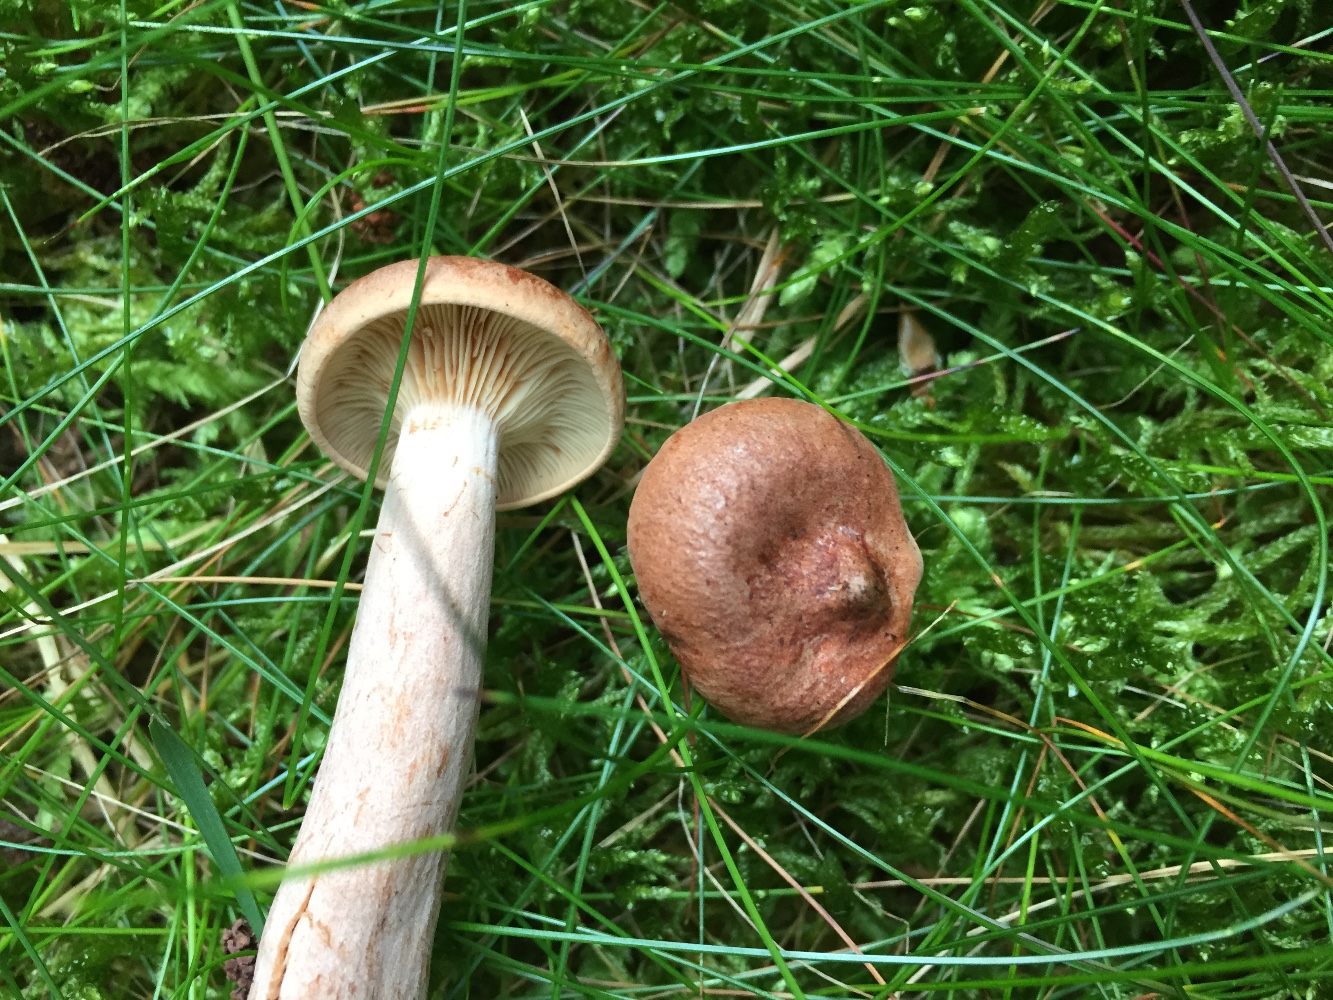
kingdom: Fungi
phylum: Basidiomycota
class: Agaricomycetes
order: Russulales
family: Russulaceae
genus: Lactarius
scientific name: Lactarius rufus
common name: rødbrun mælkehat
